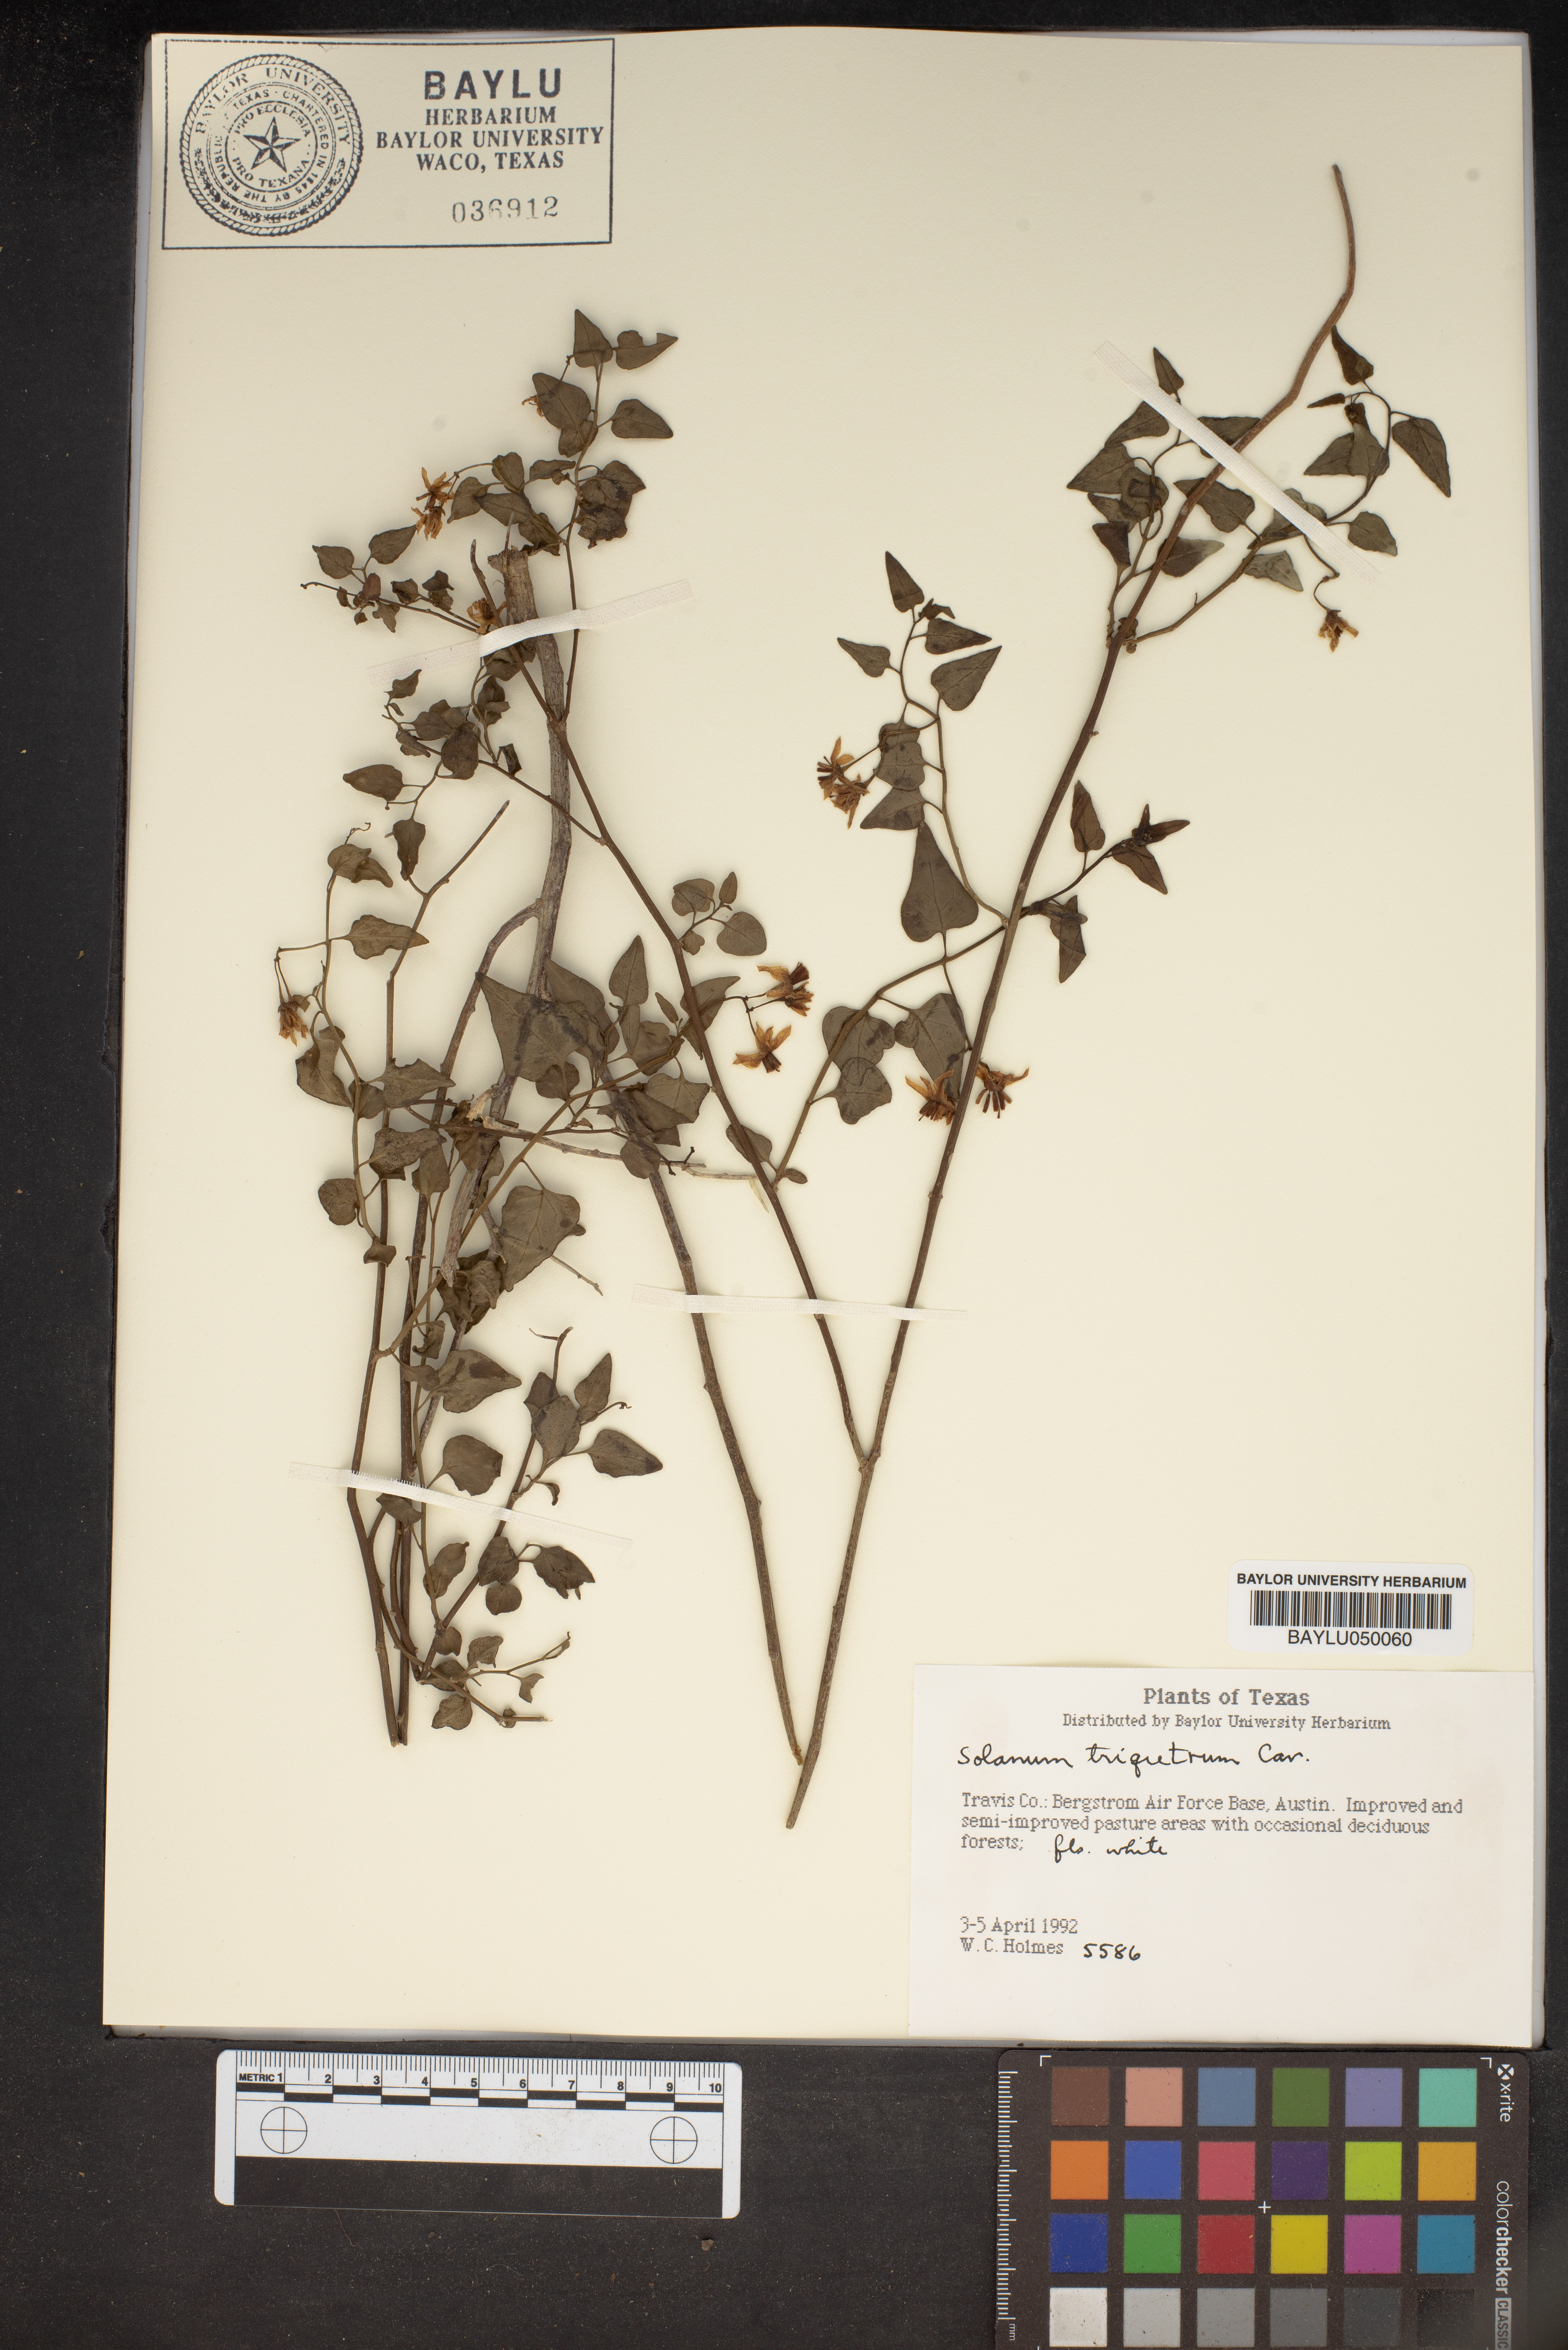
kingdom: Plantae
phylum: Tracheophyta
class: Magnoliopsida
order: Solanales
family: Solanaceae
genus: Solanum
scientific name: Solanum triquetrum
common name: Texas nightshade
